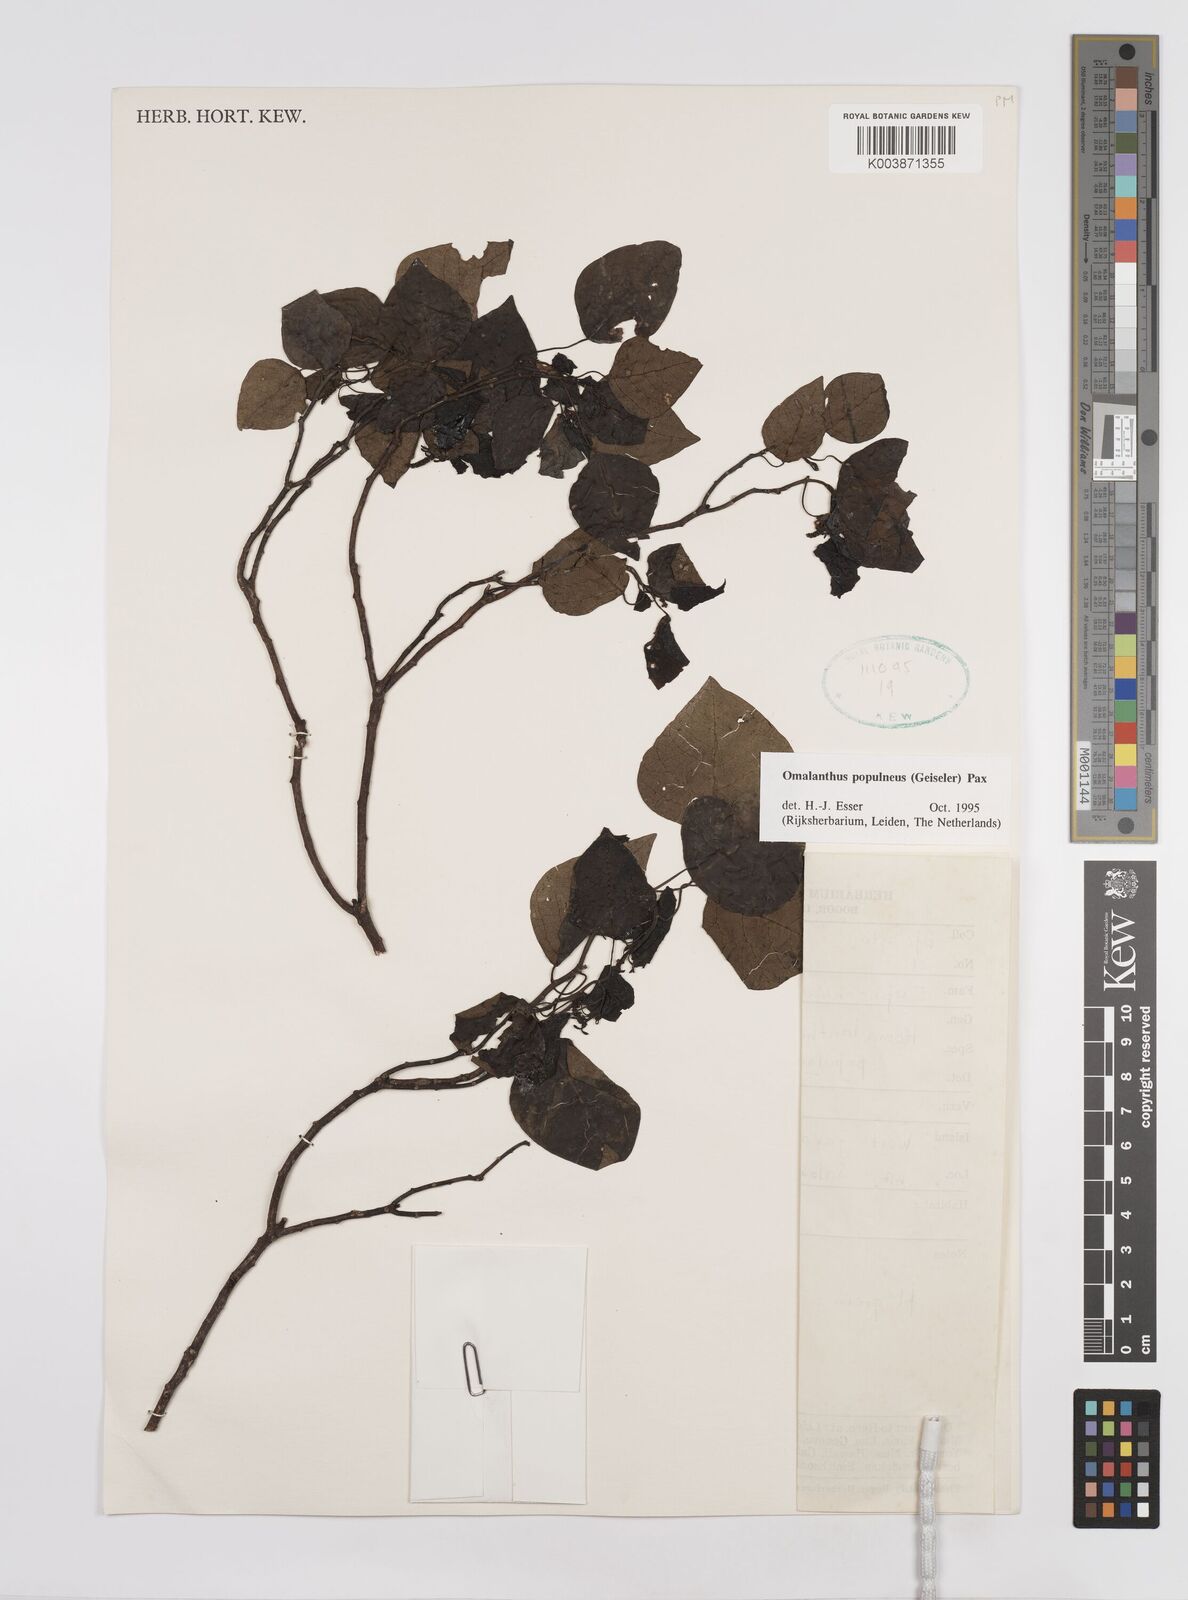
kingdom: Plantae
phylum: Tracheophyta
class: Magnoliopsida
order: Malpighiales
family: Euphorbiaceae
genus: Homalanthus
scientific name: Homalanthus populneus
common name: Spurge
